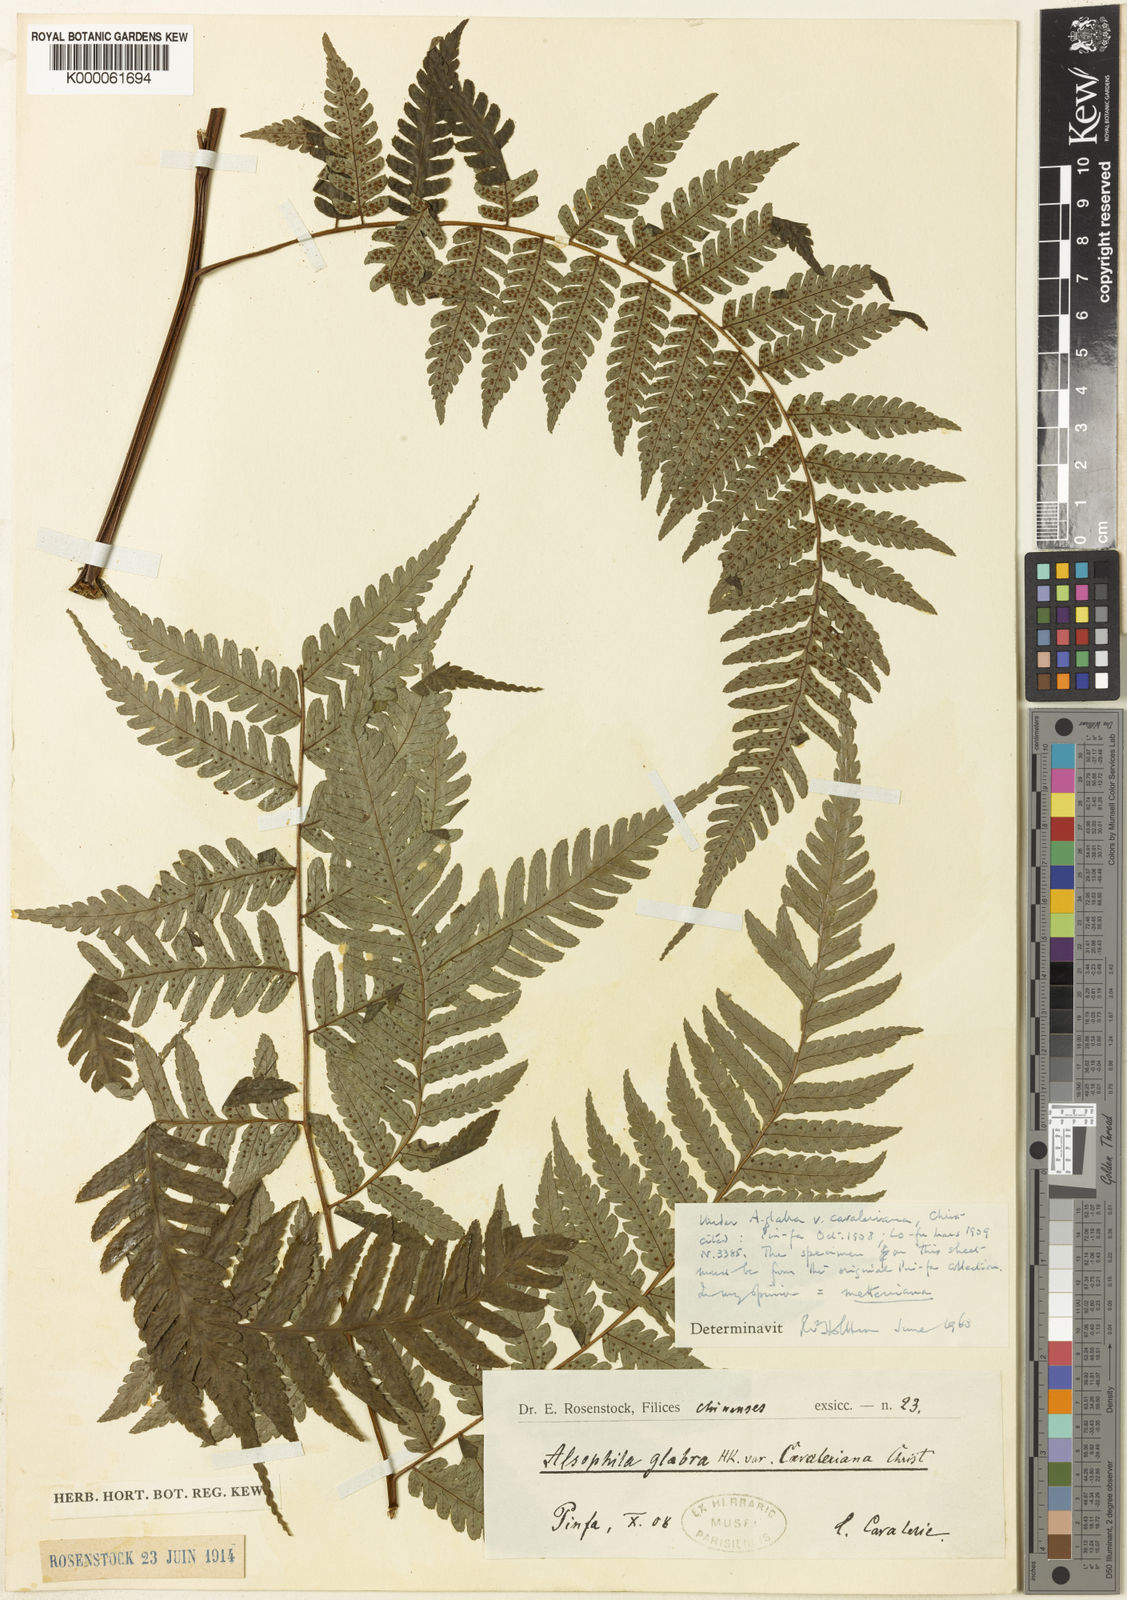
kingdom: Plantae
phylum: Tracheophyta
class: Polypodiopsida
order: Cyatheales
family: Cyatheaceae
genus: Gymnosphaera
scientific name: Gymnosphaera metteniana
